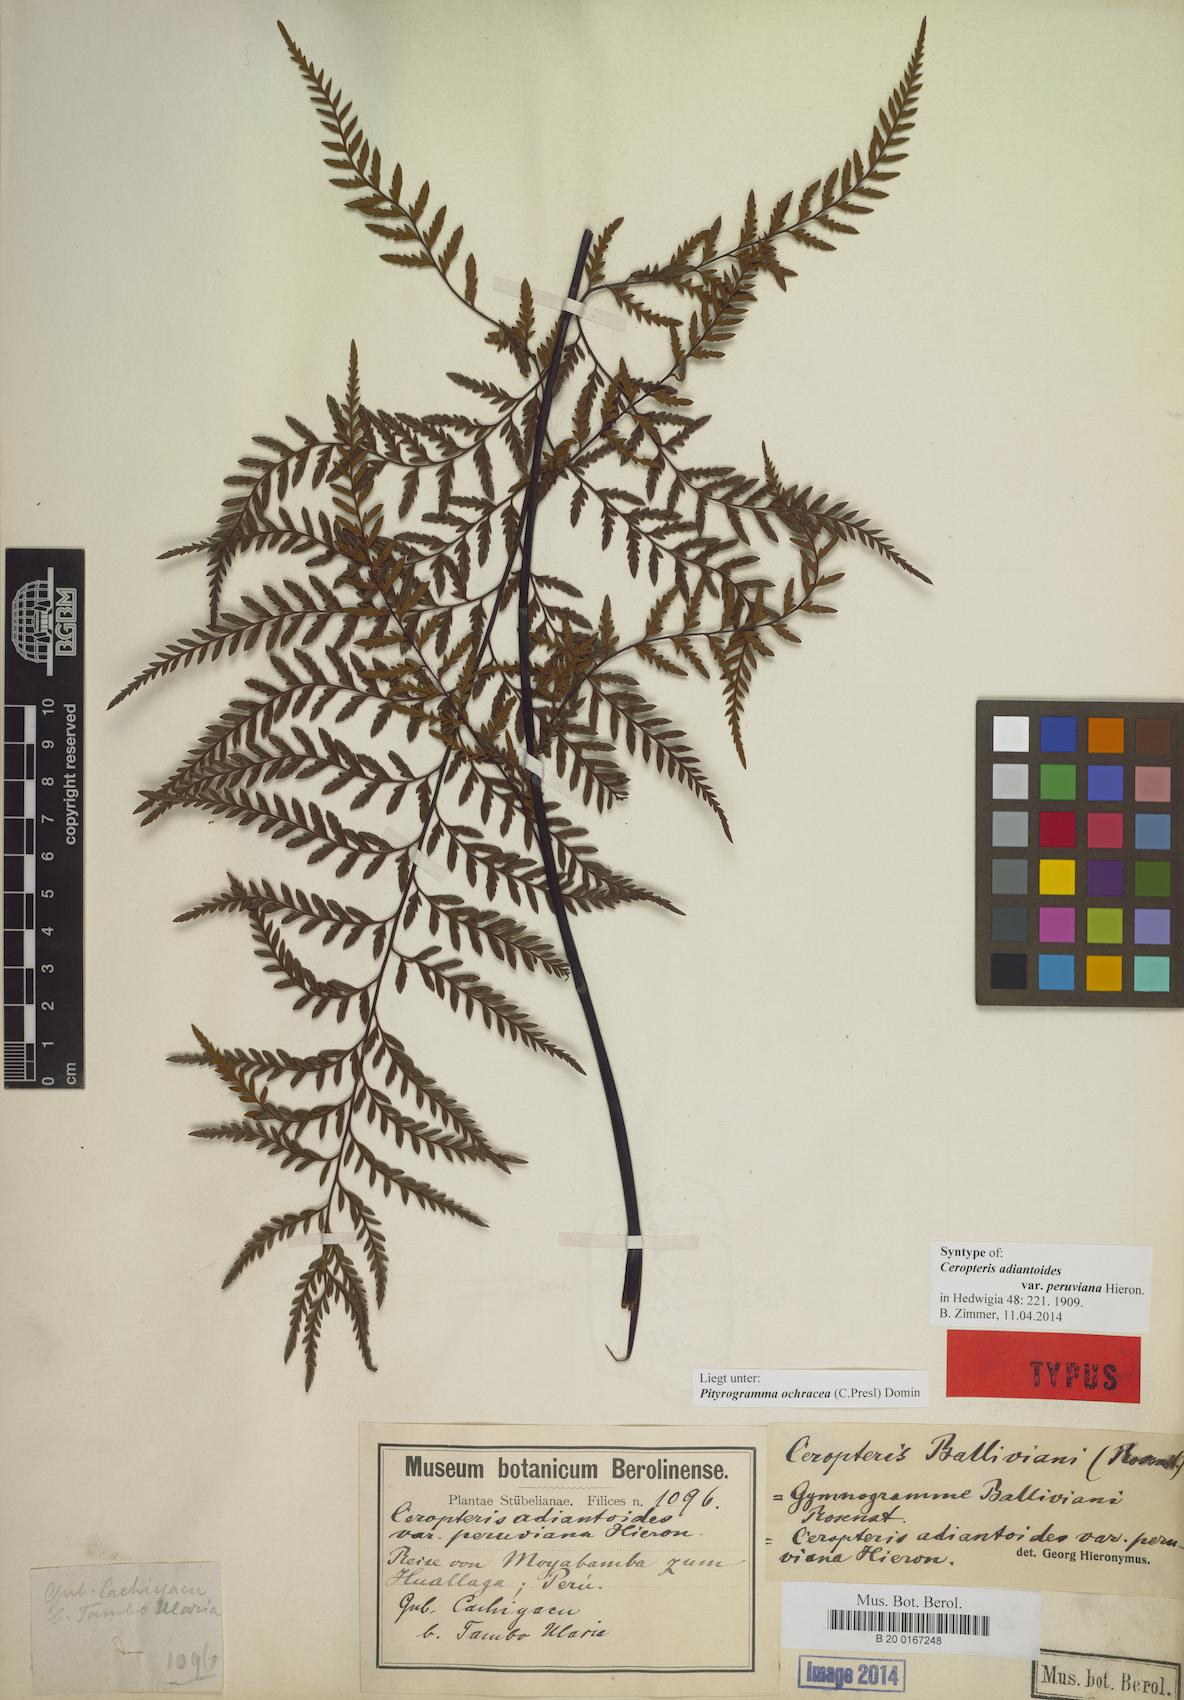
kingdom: Plantae
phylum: Tracheophyta
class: Polypodiopsida
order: Polypodiales
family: Pteridaceae
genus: Pityrogramma
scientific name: Pityrogramma ochracea
